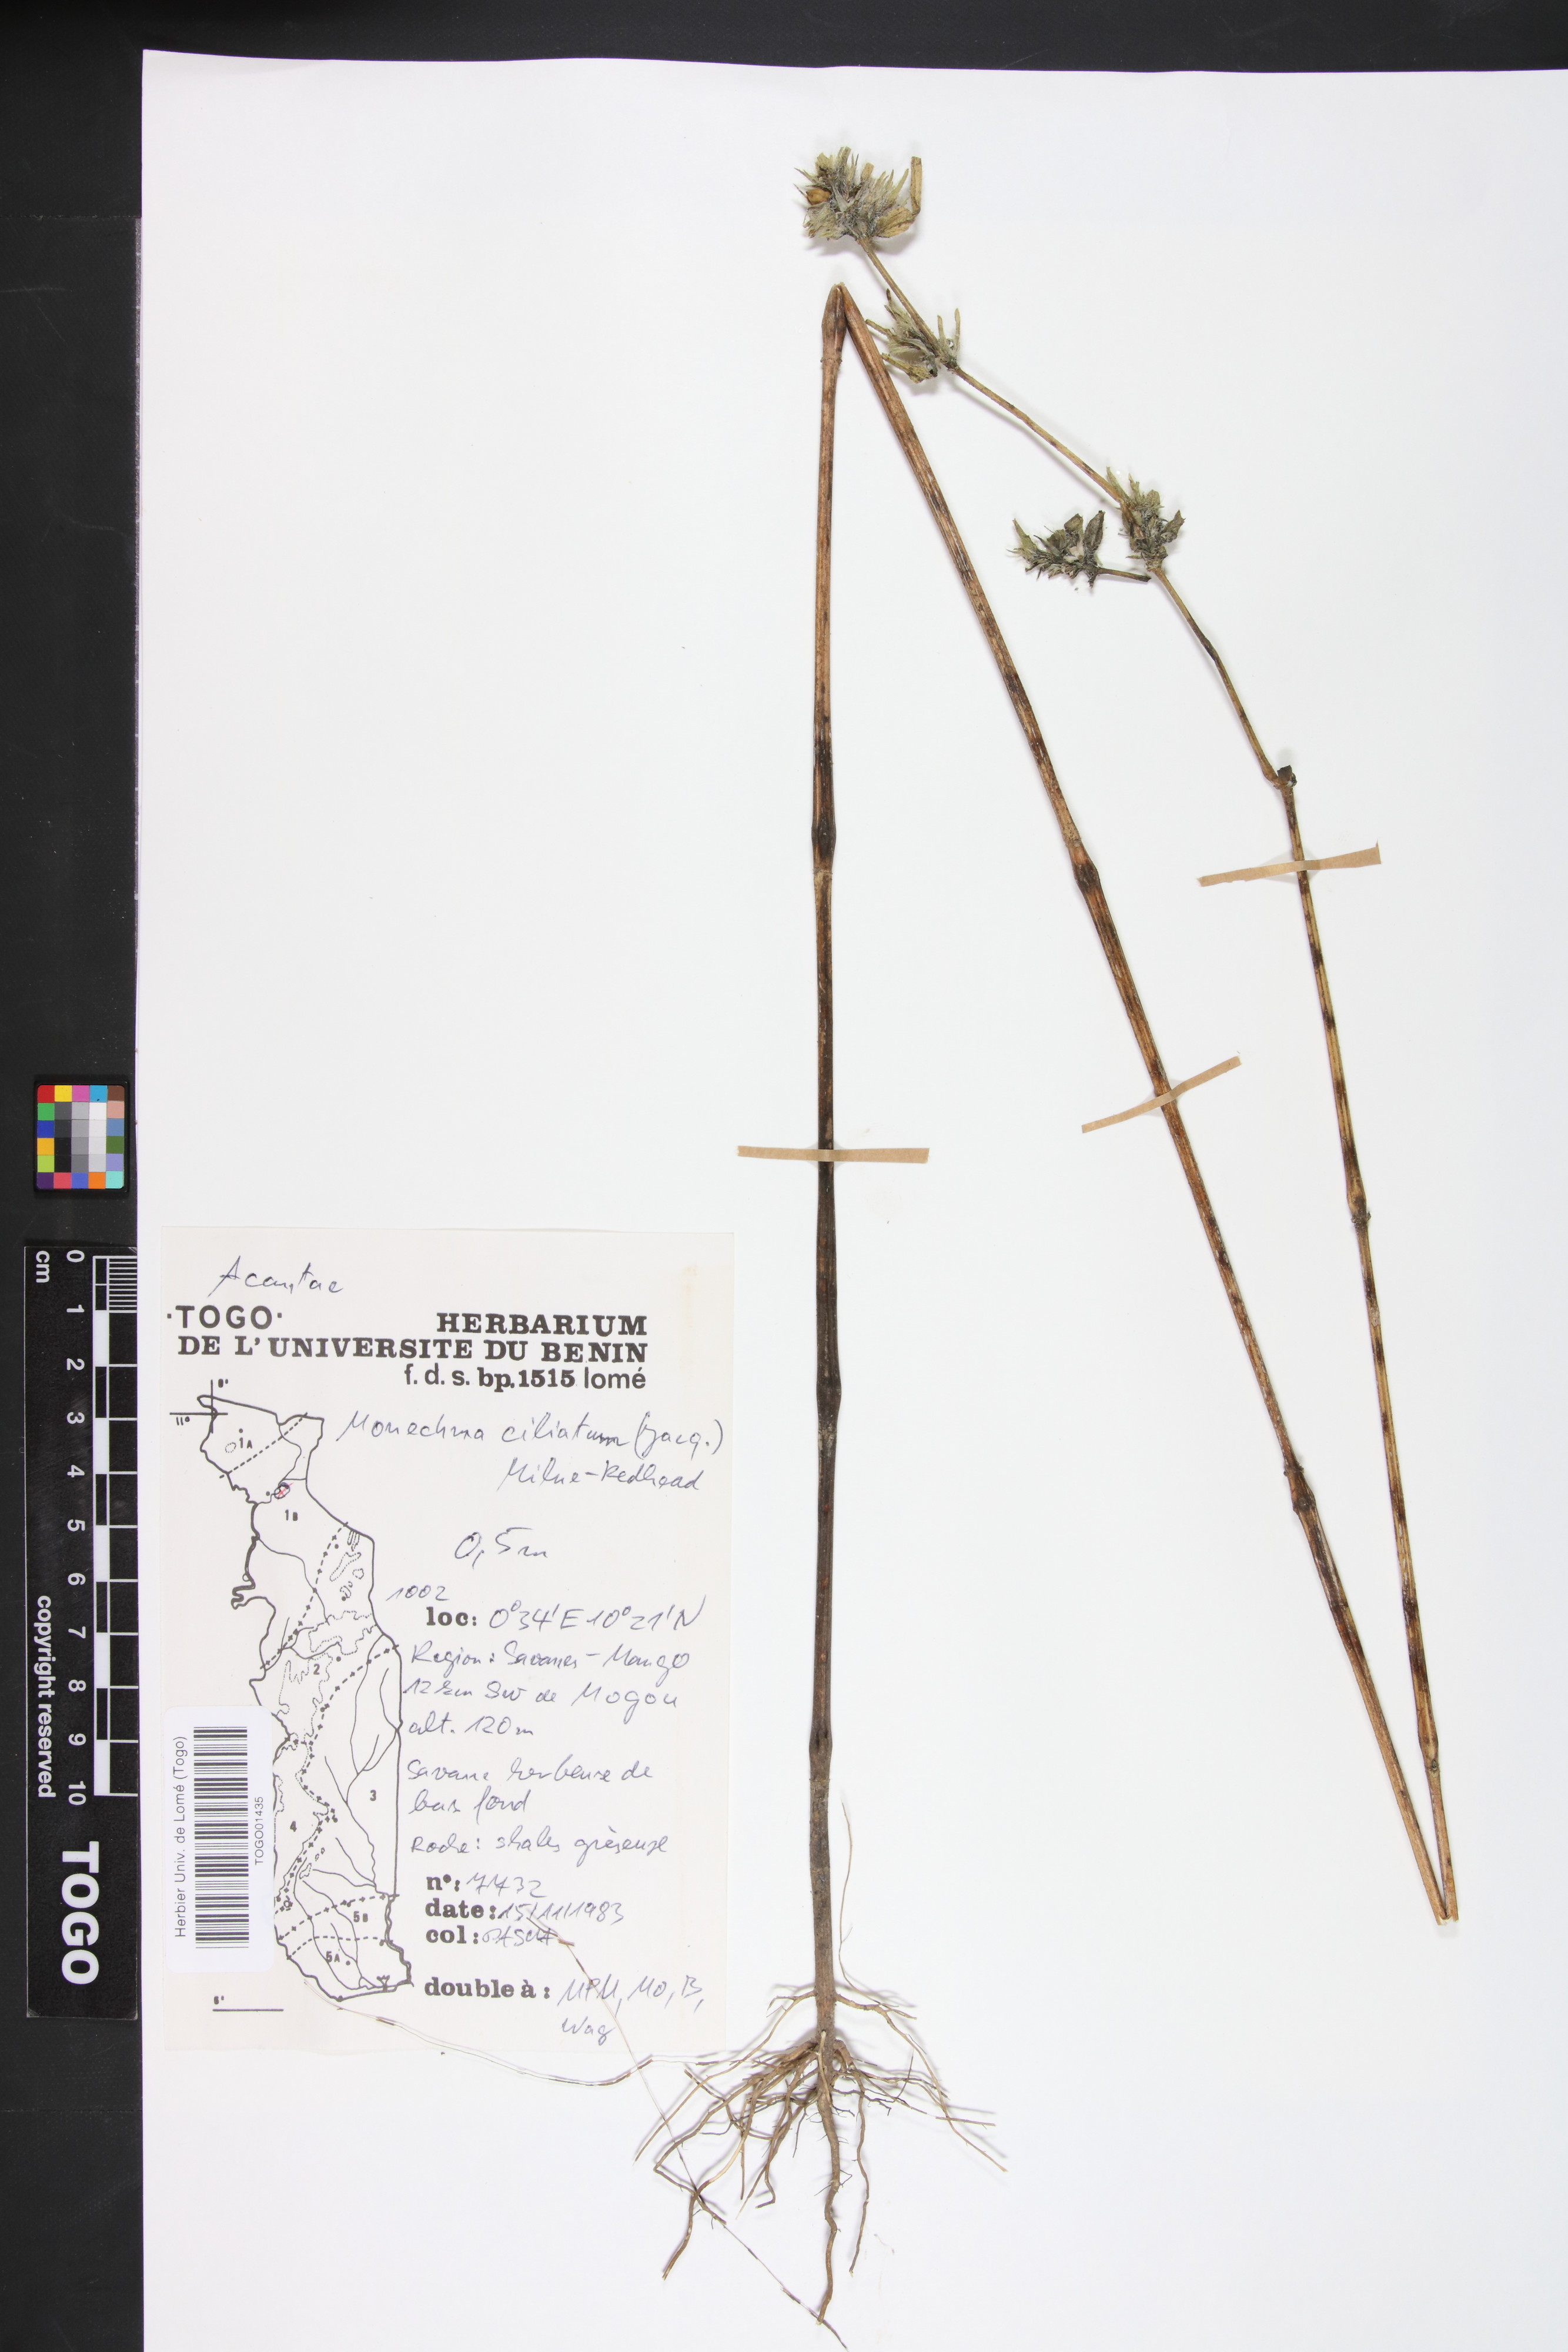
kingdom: Plantae
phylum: Tracheophyta
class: Magnoliopsida
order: Lamiales
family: Acanthaceae
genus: Pogonospermum
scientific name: Pogonospermum ciliare
